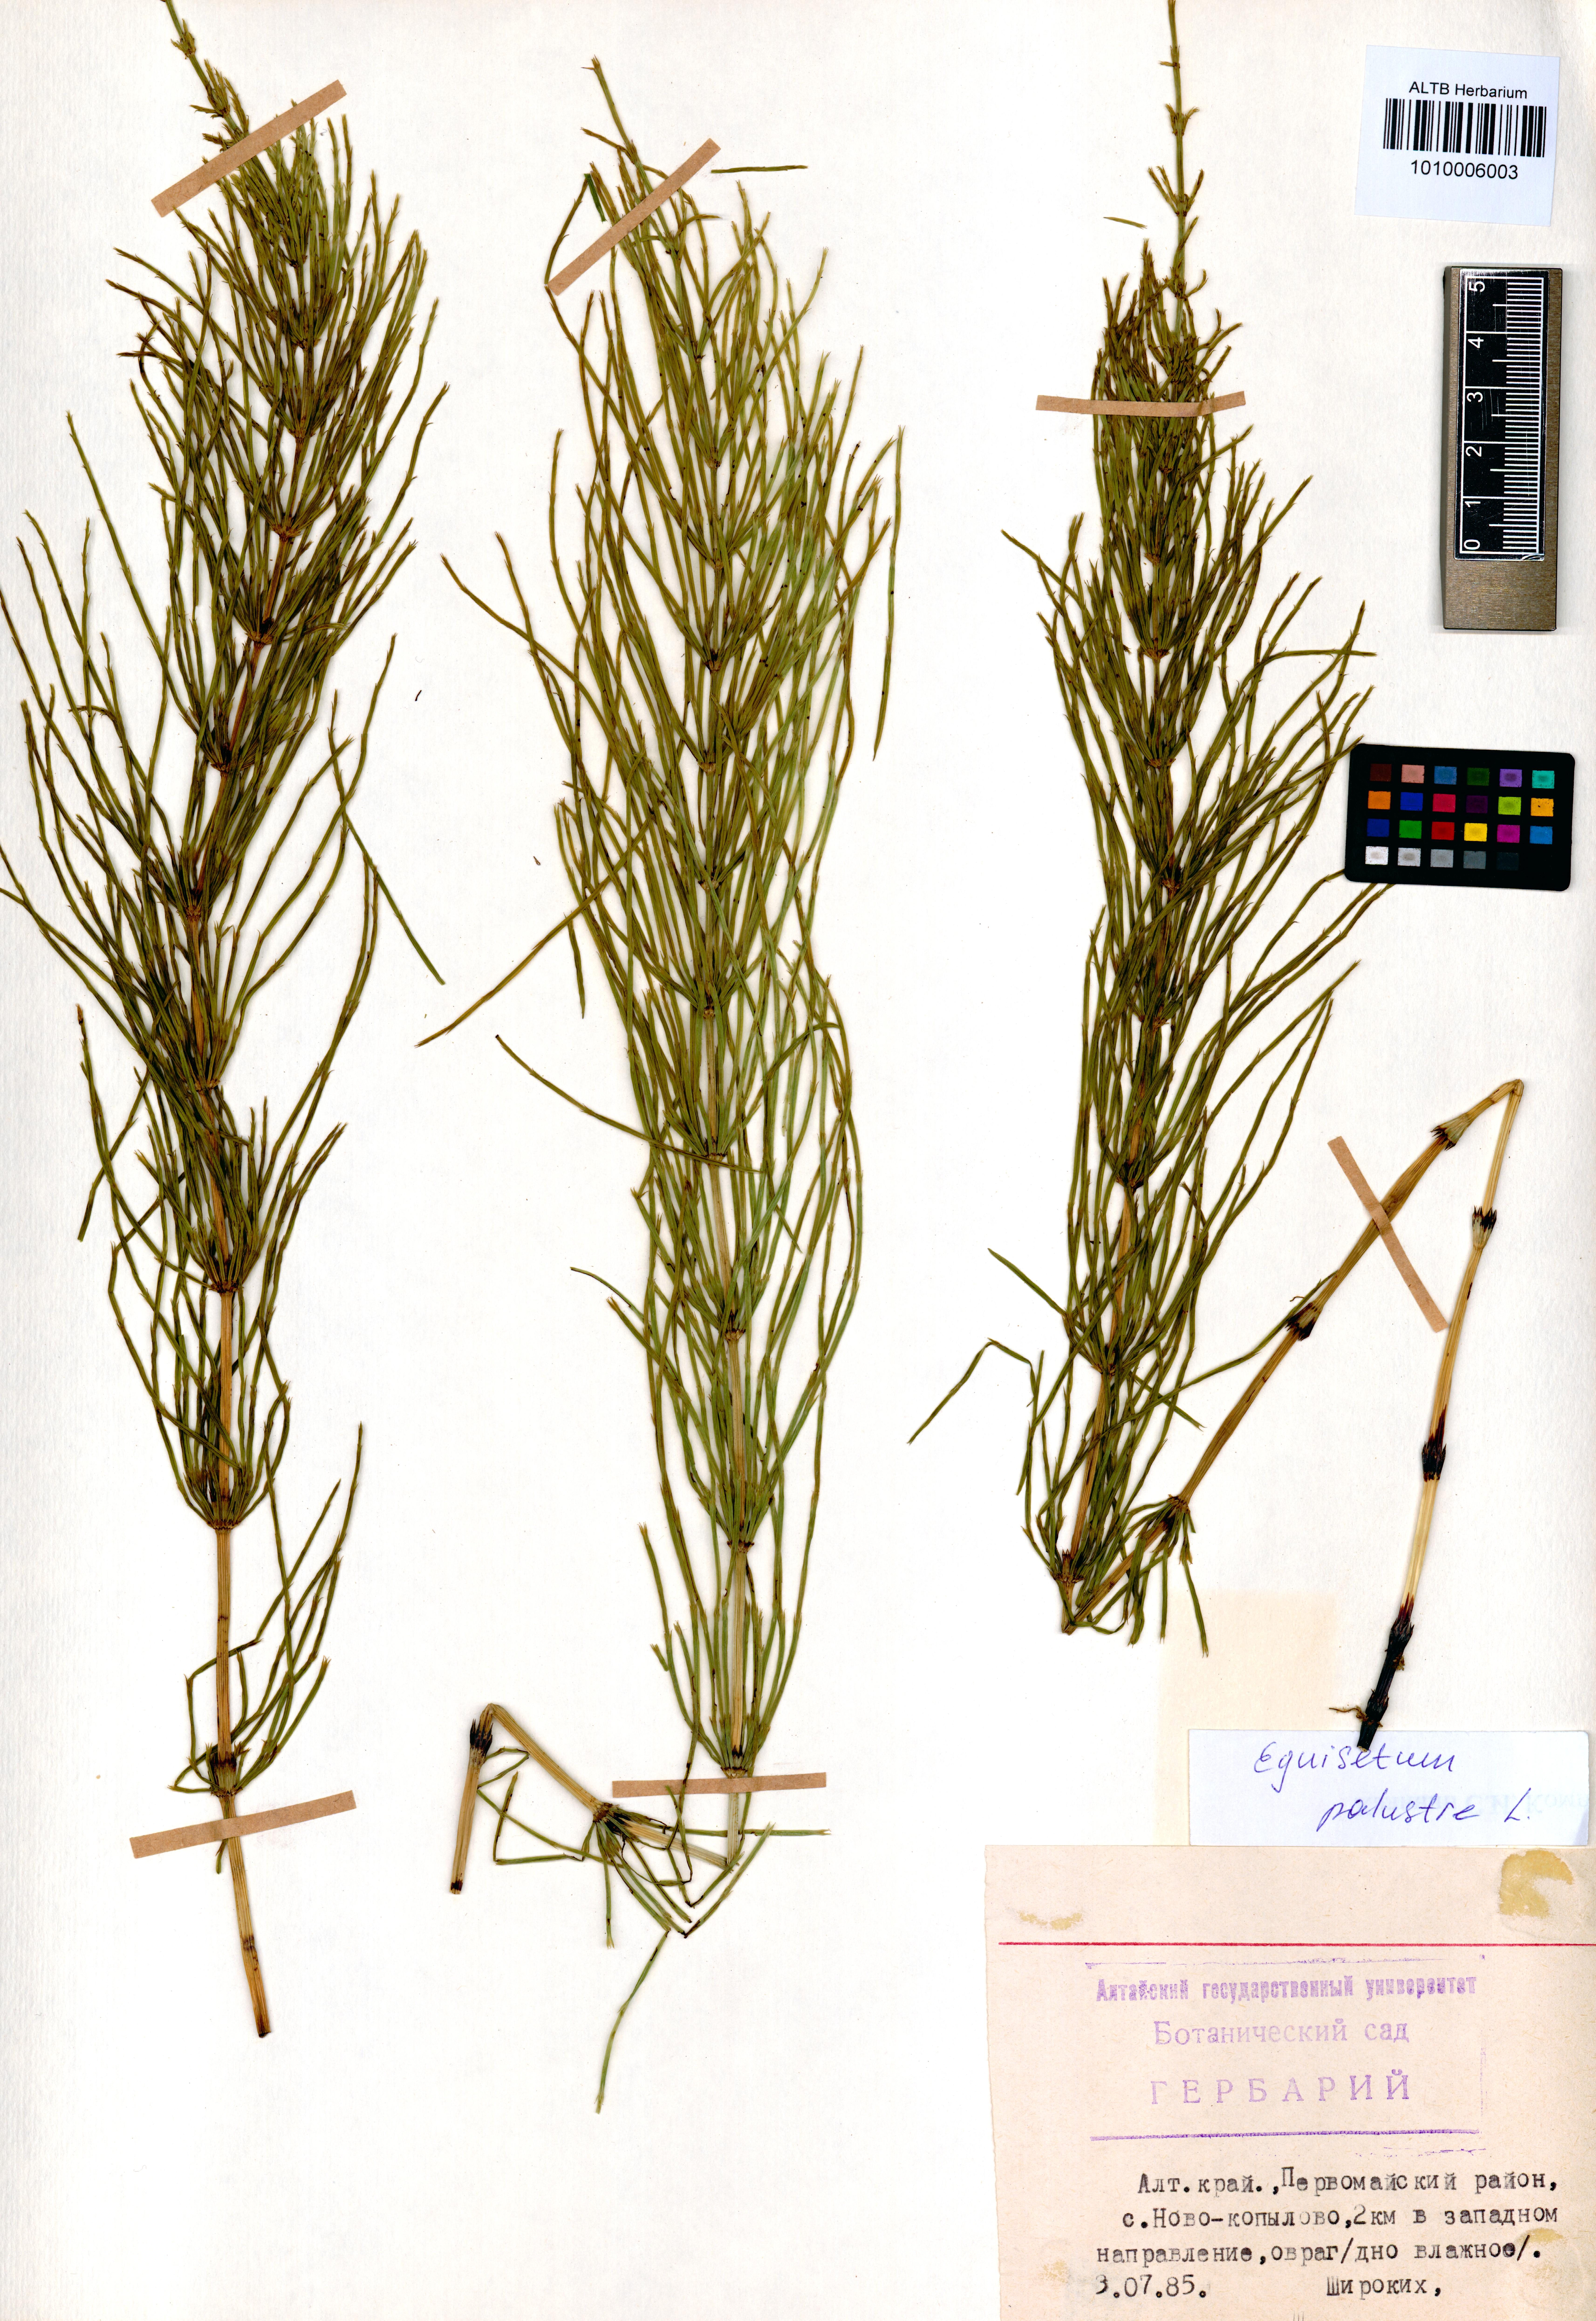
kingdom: Plantae
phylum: Tracheophyta
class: Polypodiopsida
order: Equisetales
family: Equisetaceae
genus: Equisetum
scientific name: Equisetum palustre
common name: Marsh horsetail
